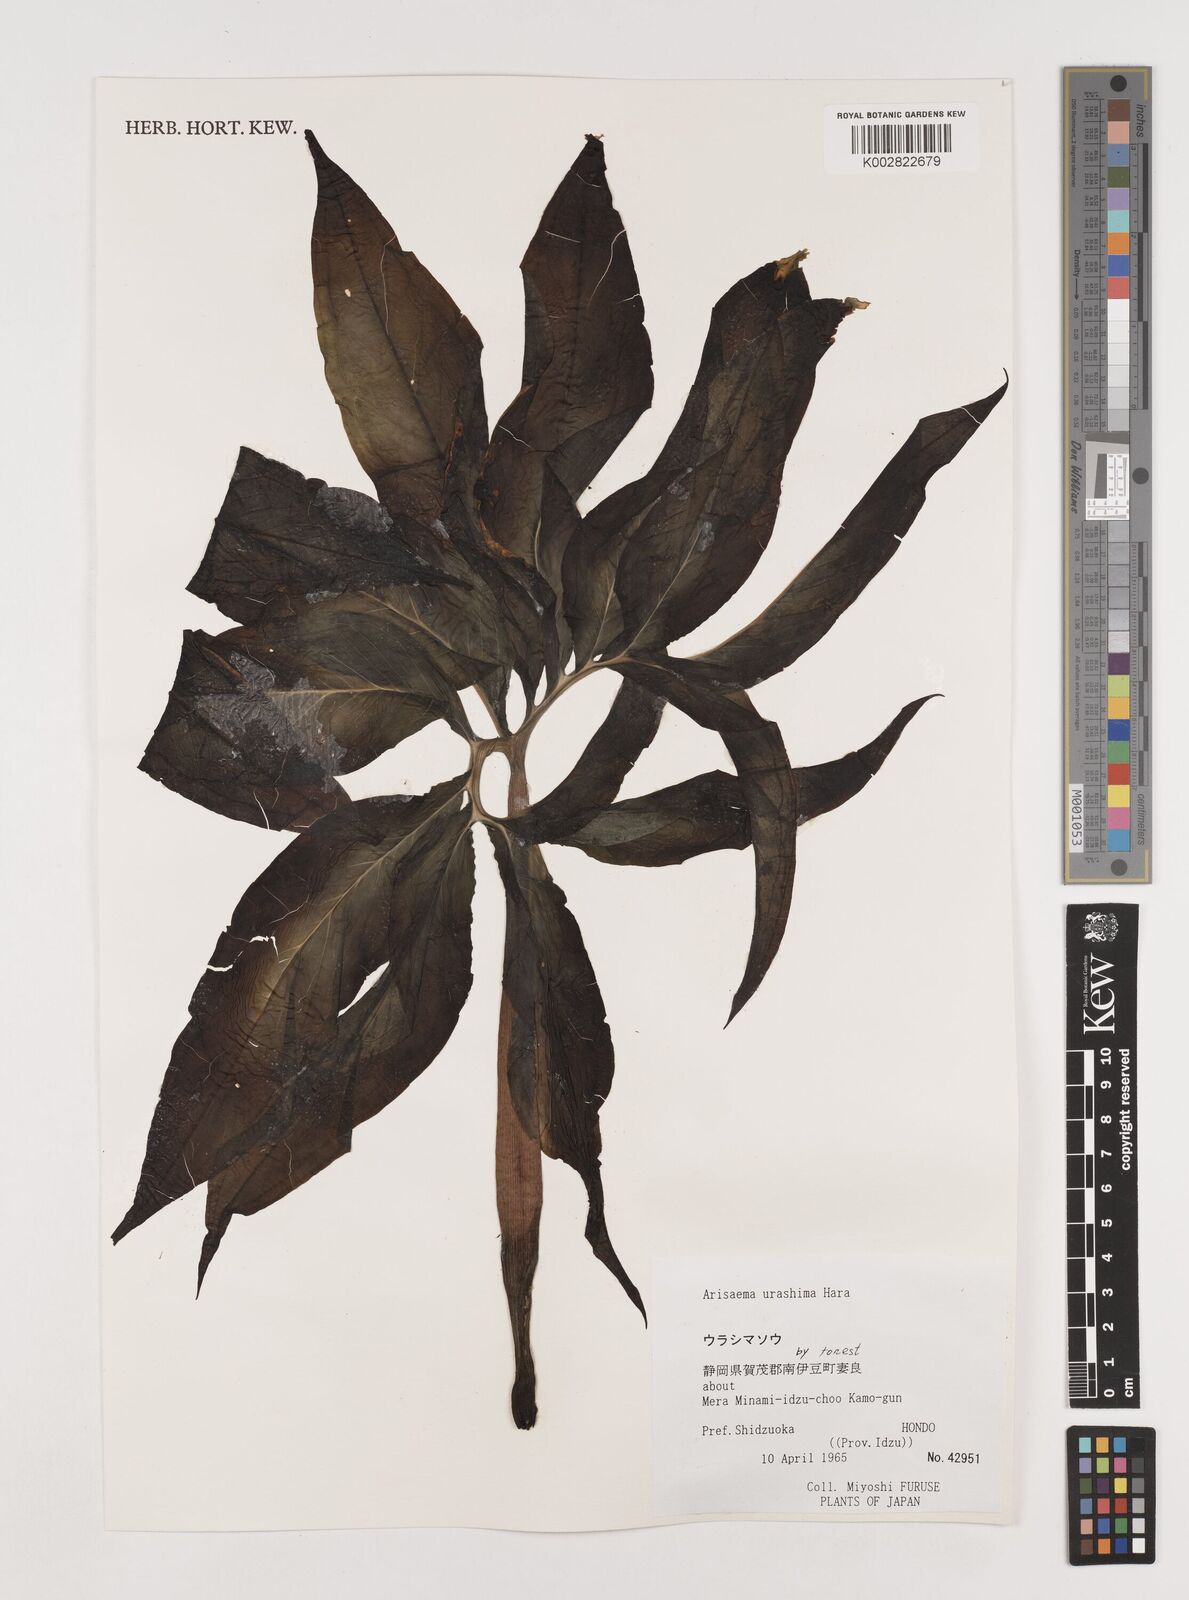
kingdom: Plantae
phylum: Tracheophyta
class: Liliopsida
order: Alismatales
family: Araceae
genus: Arisaema
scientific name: Arisaema
